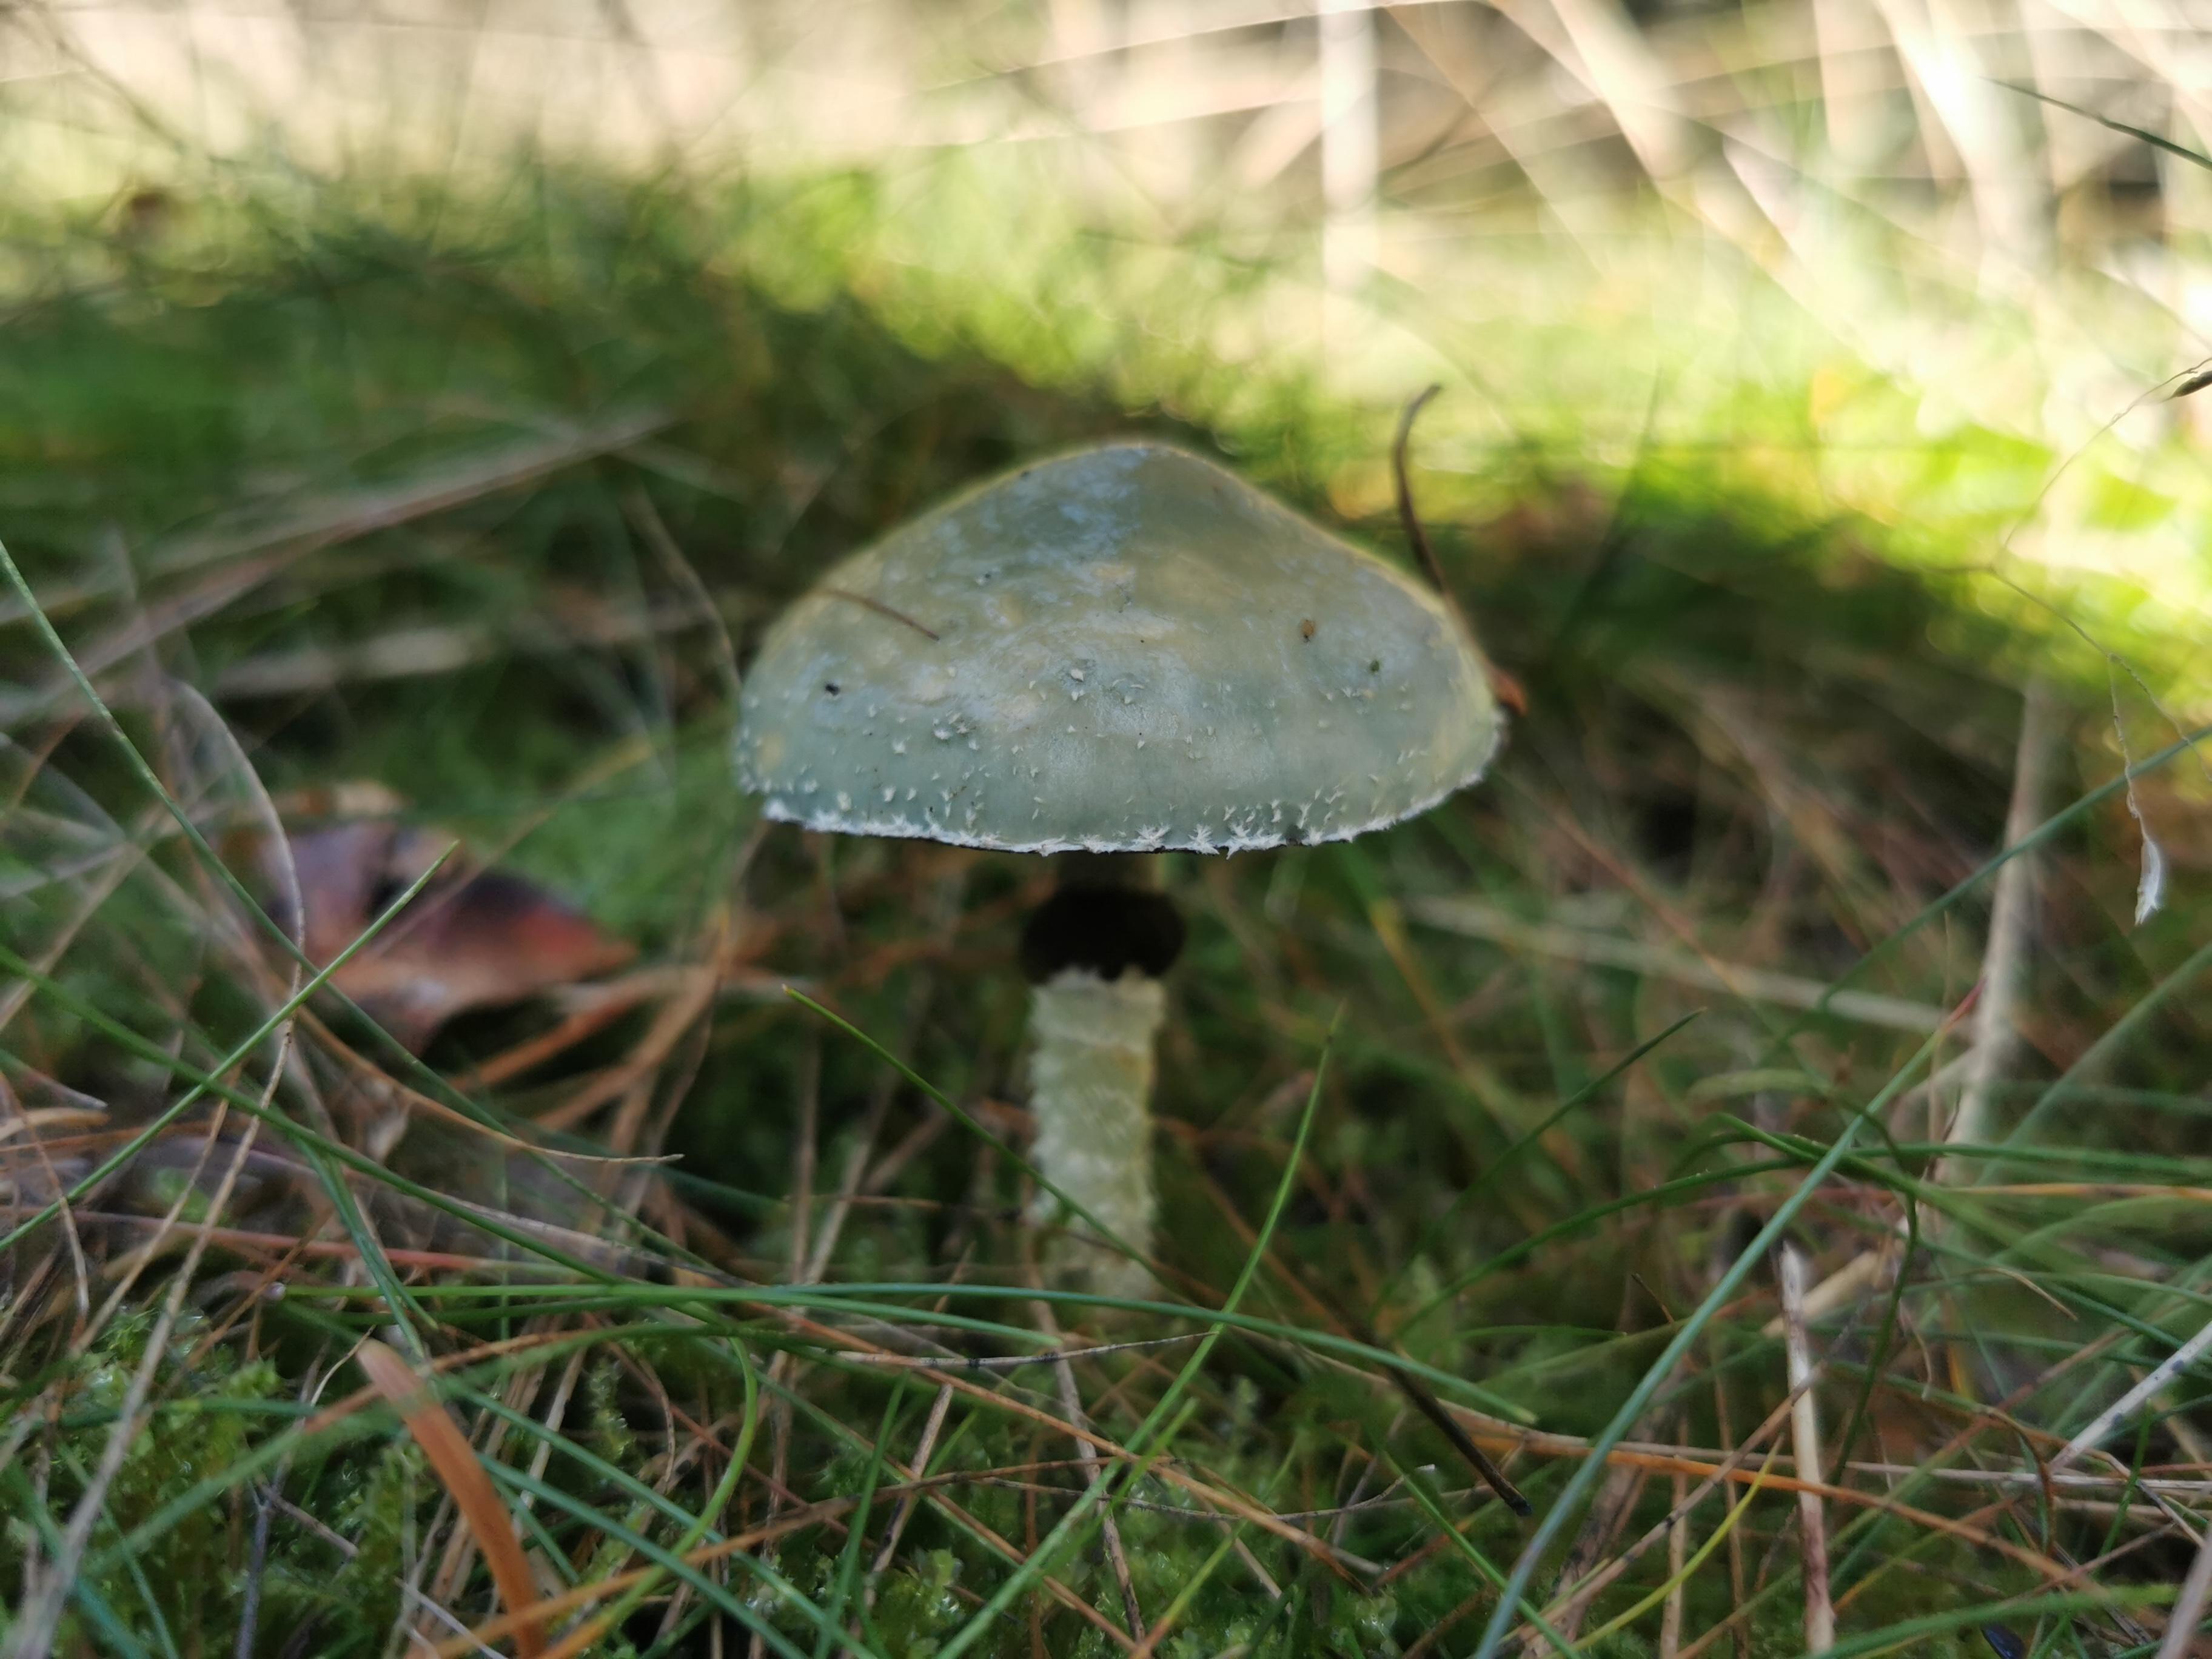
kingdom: Fungi
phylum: Basidiomycota
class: Agaricomycetes
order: Agaricales
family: Strophariaceae
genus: Stropharia
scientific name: Stropharia aeruginosa
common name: spanskgrøn bredblad
